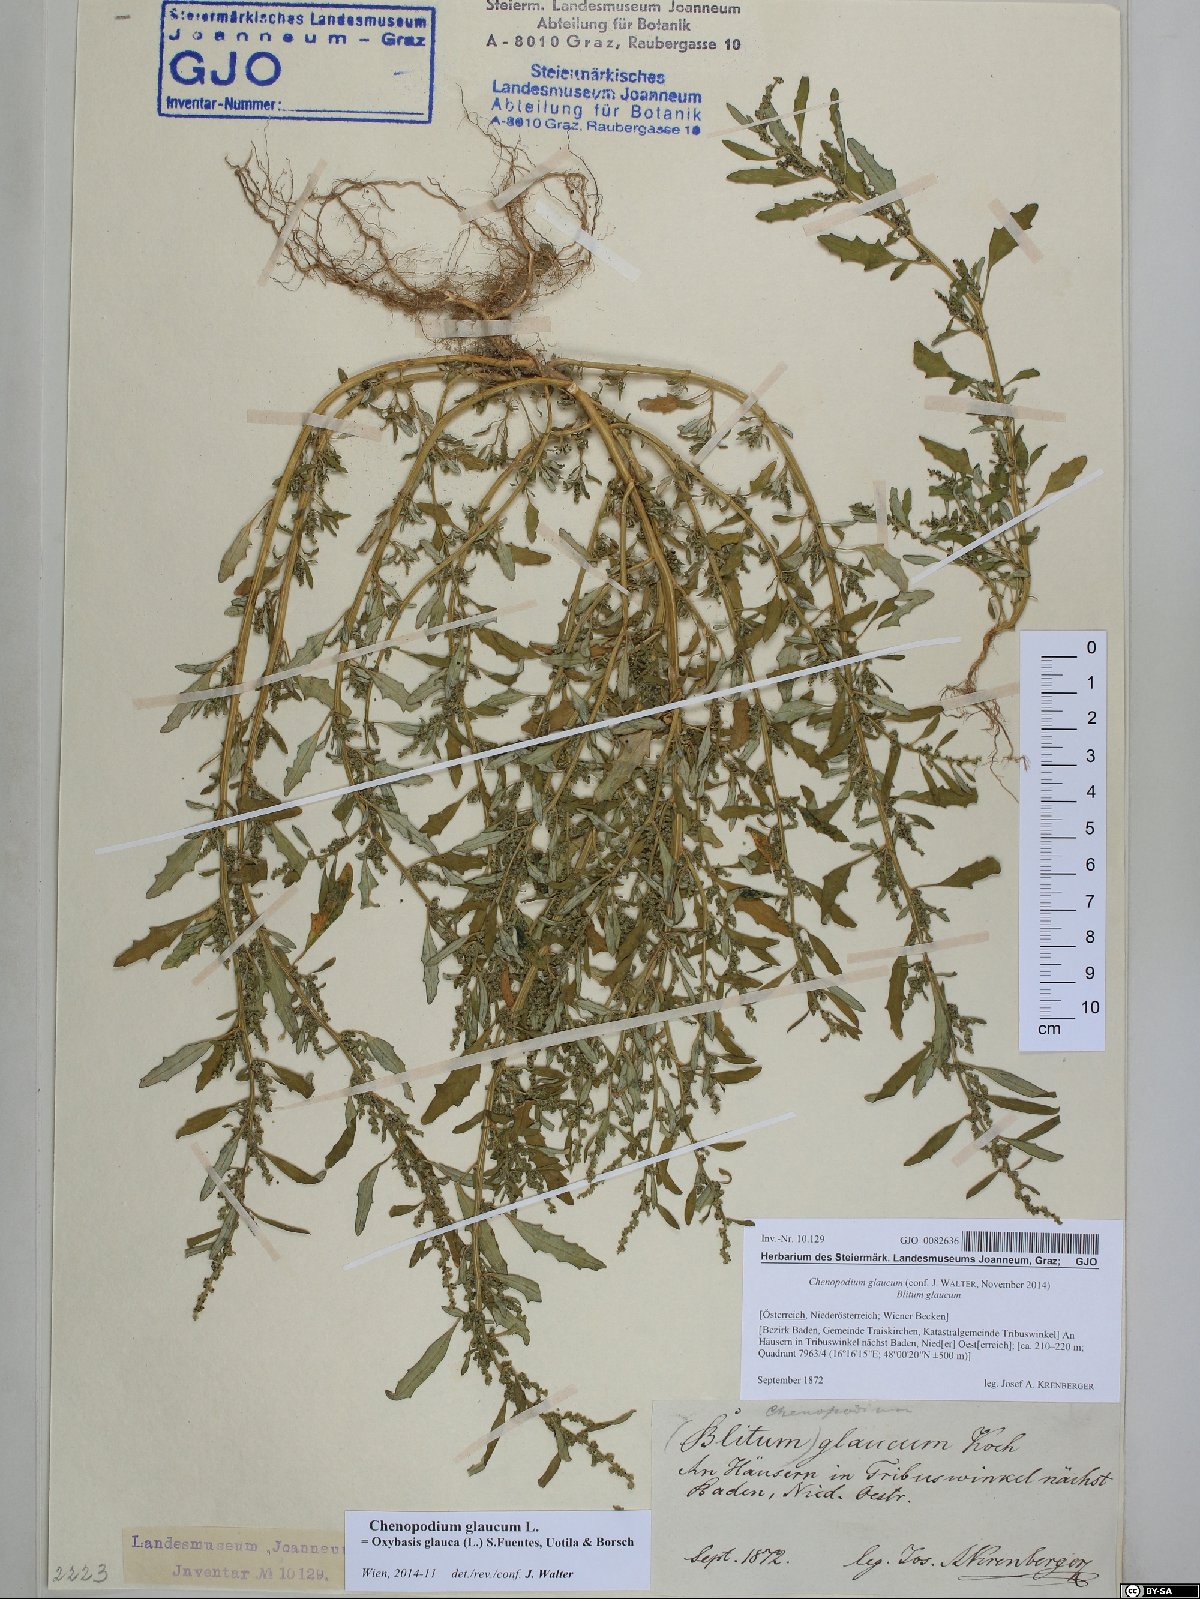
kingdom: Plantae
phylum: Tracheophyta
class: Magnoliopsida
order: Caryophyllales
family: Amaranthaceae
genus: Oxybasis
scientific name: Oxybasis glauca
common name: Glaucous goosefoot
